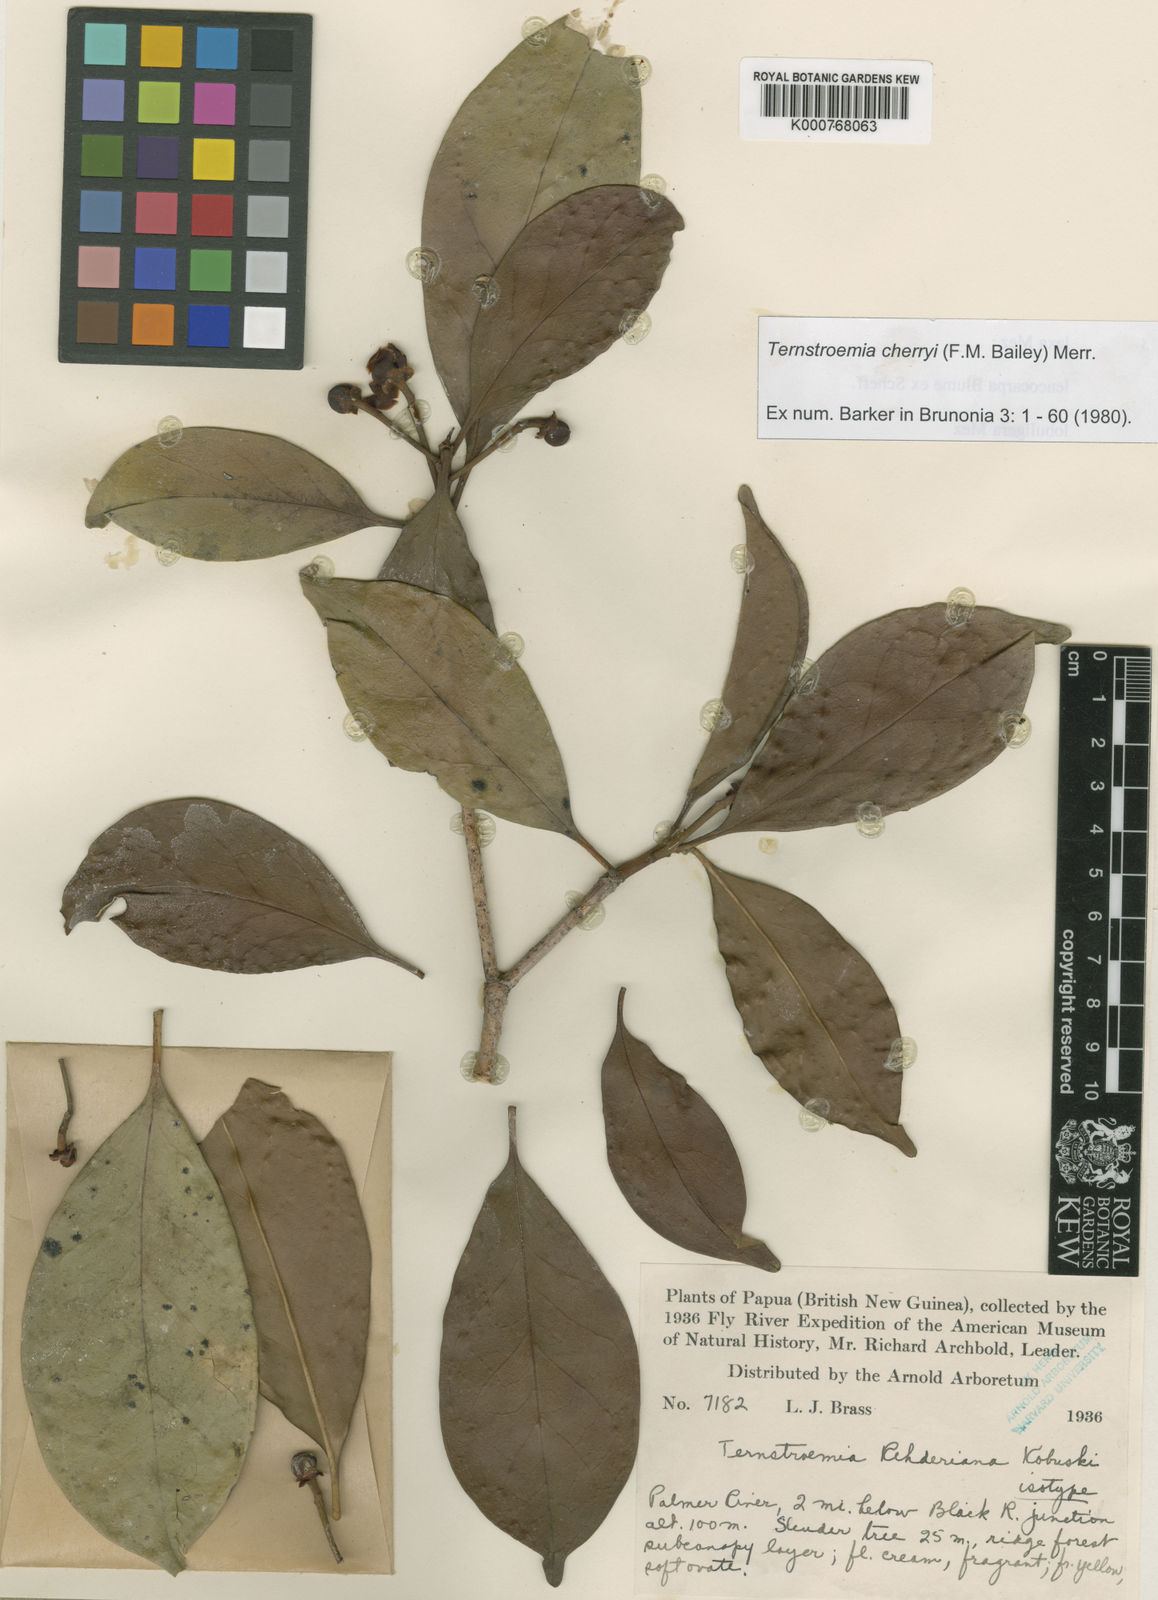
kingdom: Plantae
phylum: Tracheophyta
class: Magnoliopsida
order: Ericales
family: Pentaphylacaceae
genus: Ternstroemia
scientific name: Ternstroemia
